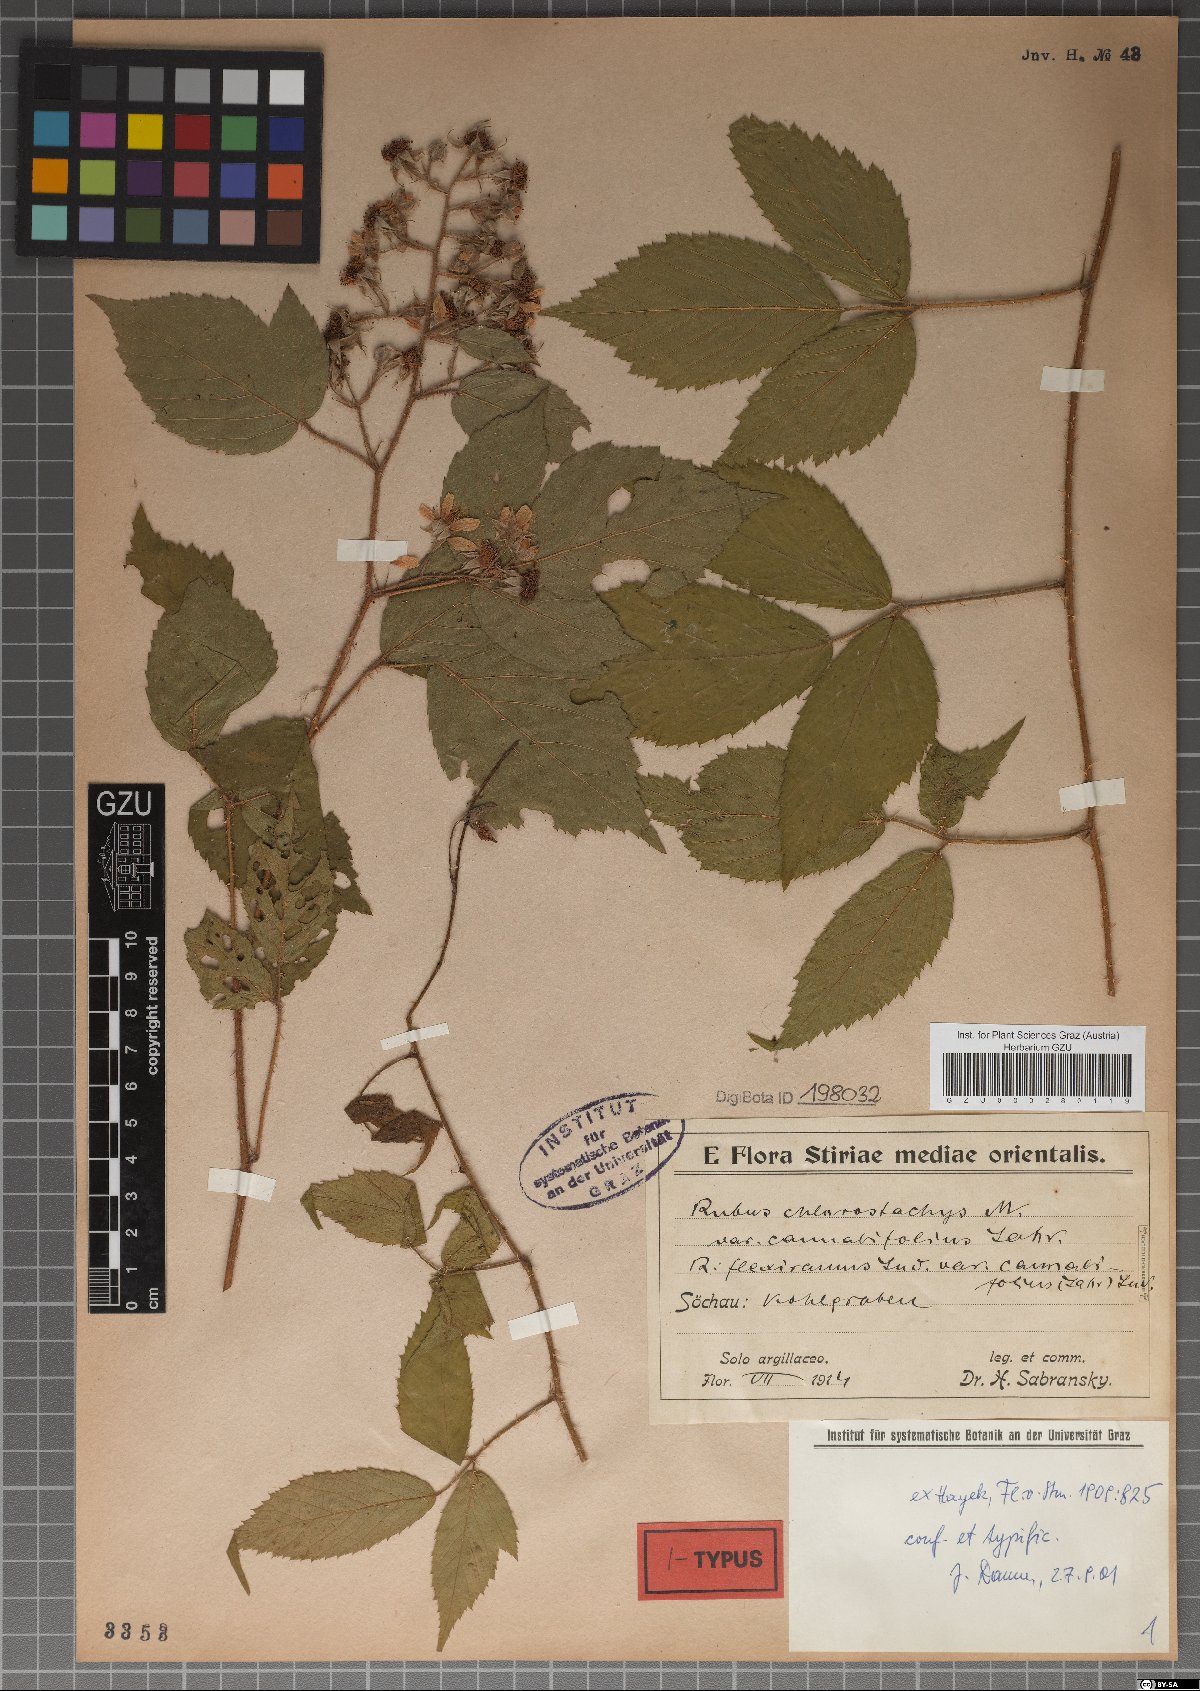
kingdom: Plantae
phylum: Tracheophyta
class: Magnoliopsida
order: Rosales
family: Rosaceae
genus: Rubus
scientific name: Rubus chlorostachys
